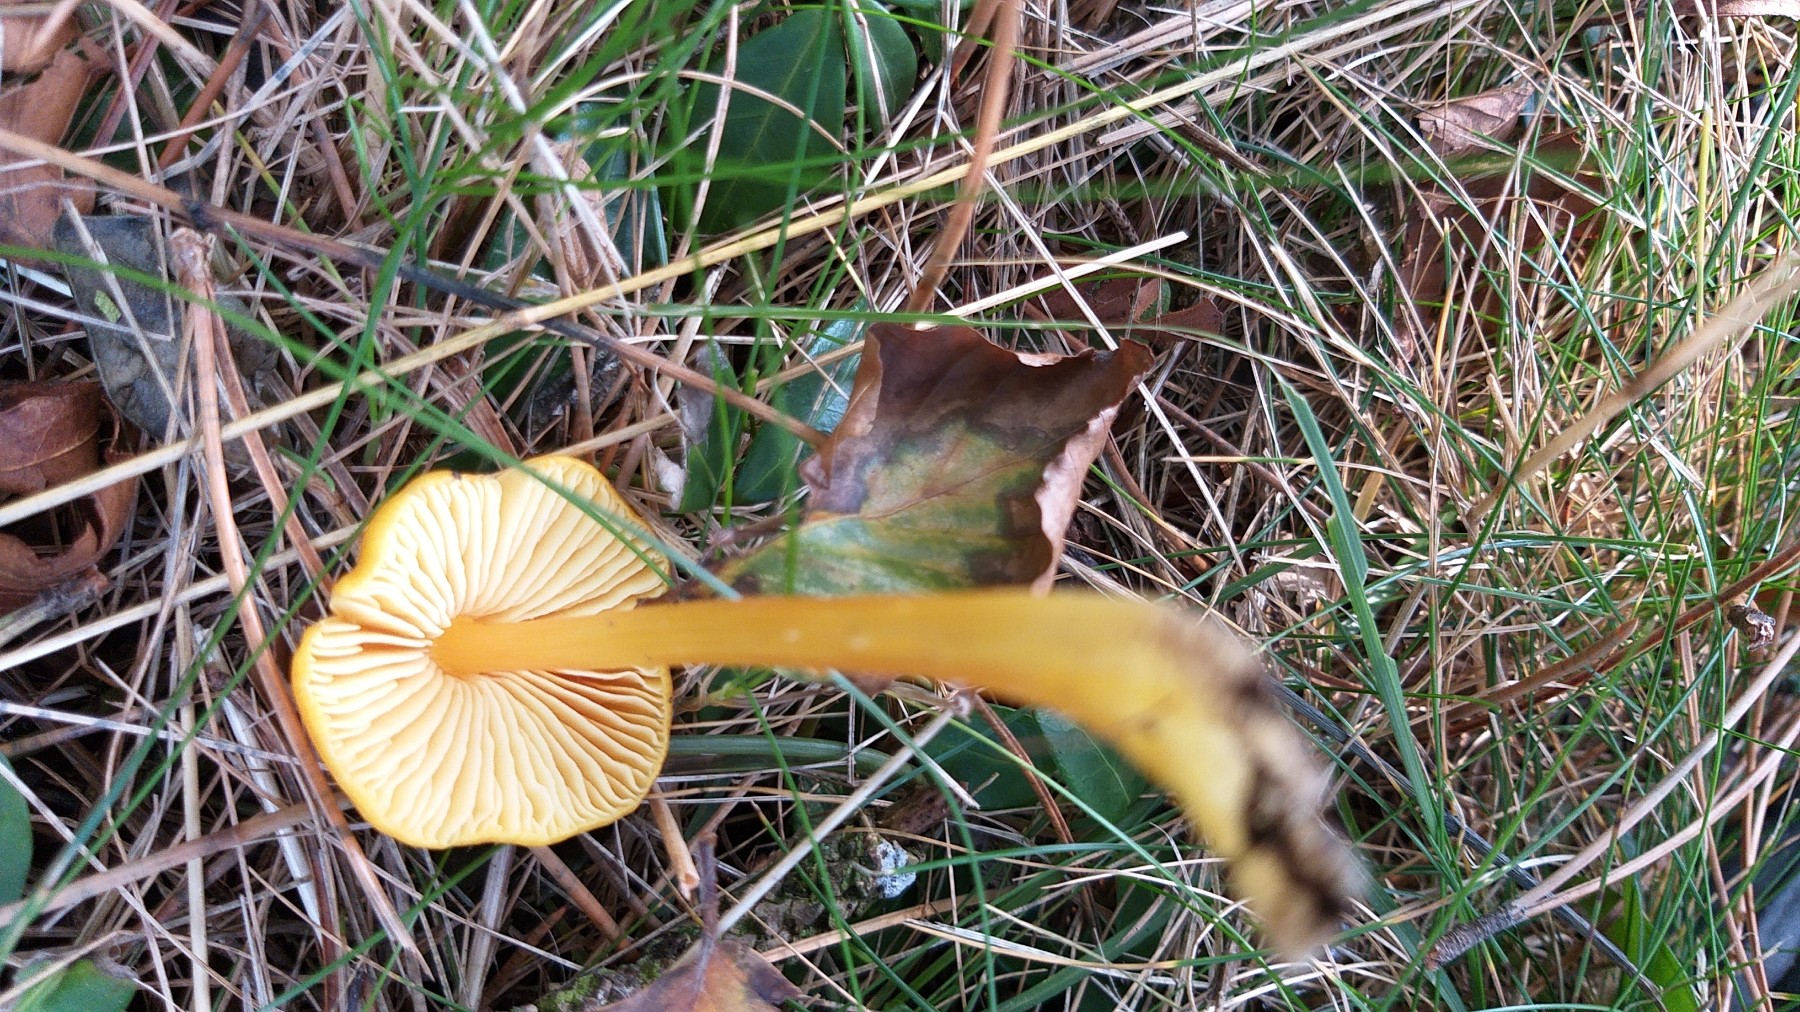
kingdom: Fungi
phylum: Basidiomycota
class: Agaricomycetes
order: Agaricales
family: Hygrophoraceae
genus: Hygrocybe
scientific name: Hygrocybe
